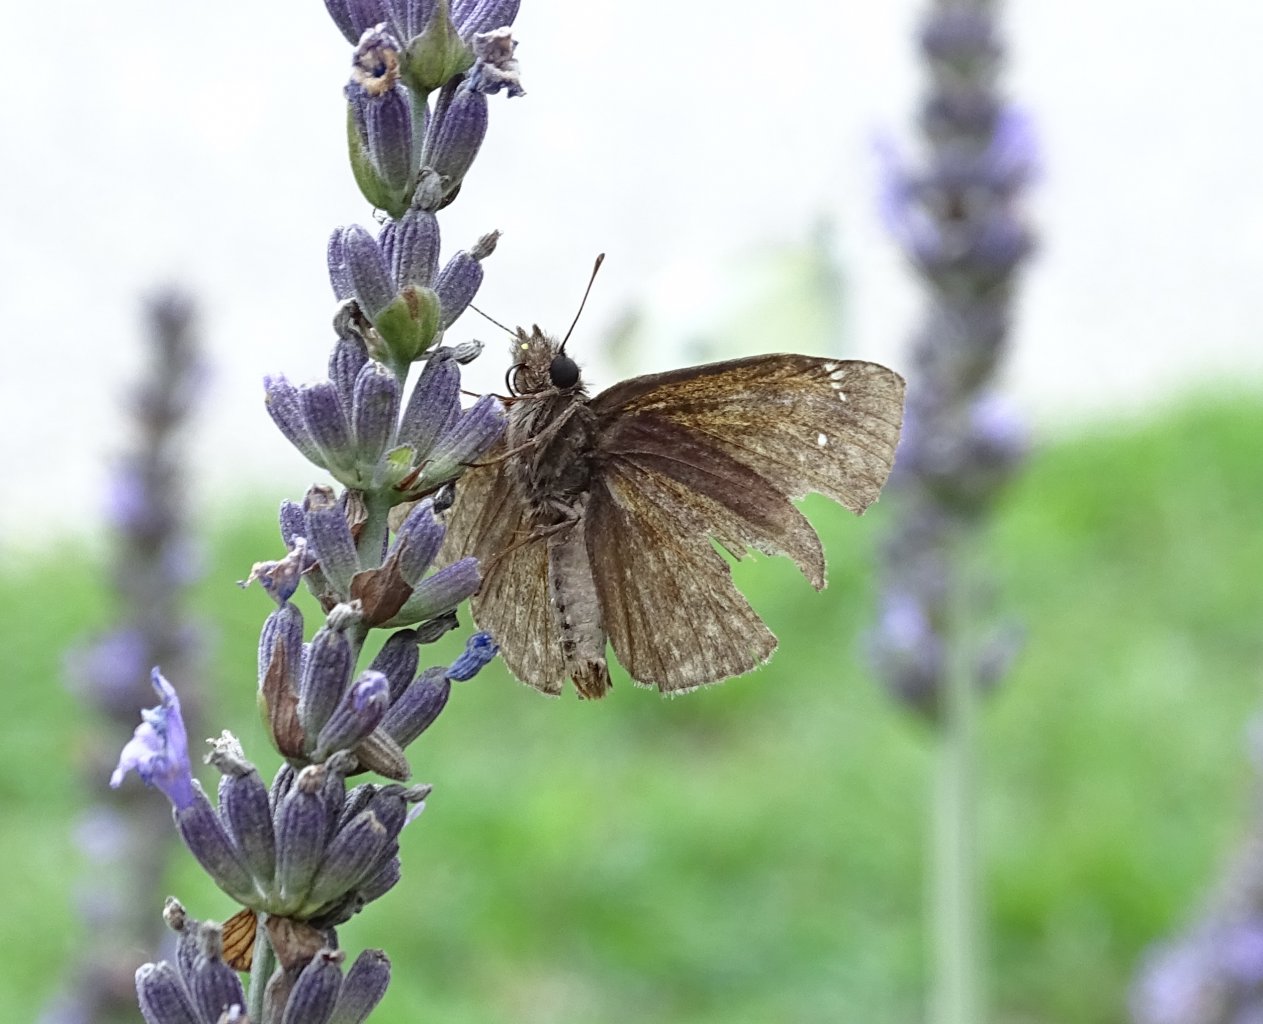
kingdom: Animalia
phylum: Arthropoda
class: Insecta
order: Lepidoptera
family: Hesperiidae
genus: Erynnis
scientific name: Erynnis
